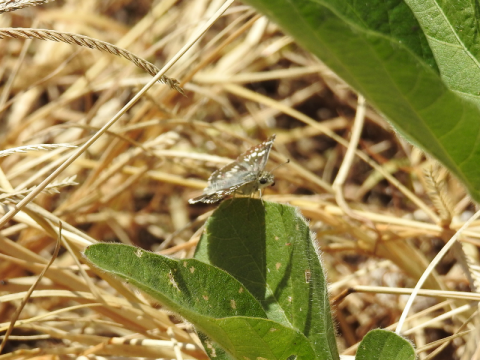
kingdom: Animalia
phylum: Arthropoda
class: Insecta
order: Lepidoptera
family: Hesperiidae
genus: Pyrgus
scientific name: Pyrgus communis
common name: Common Checkered-Skipper
